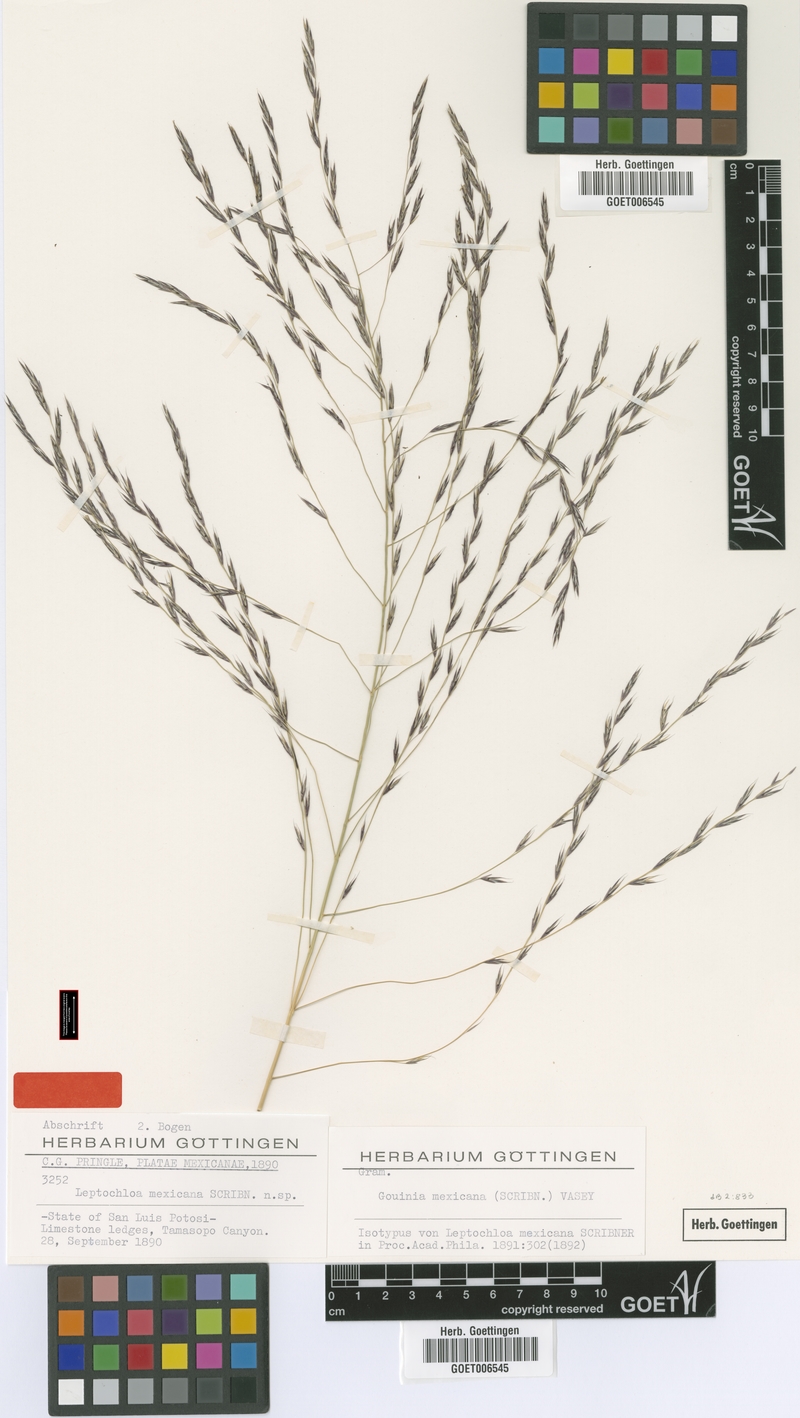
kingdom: Plantae
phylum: Tracheophyta
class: Liliopsida
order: Poales
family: Poaceae
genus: Gouinia
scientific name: Gouinia mexicana
